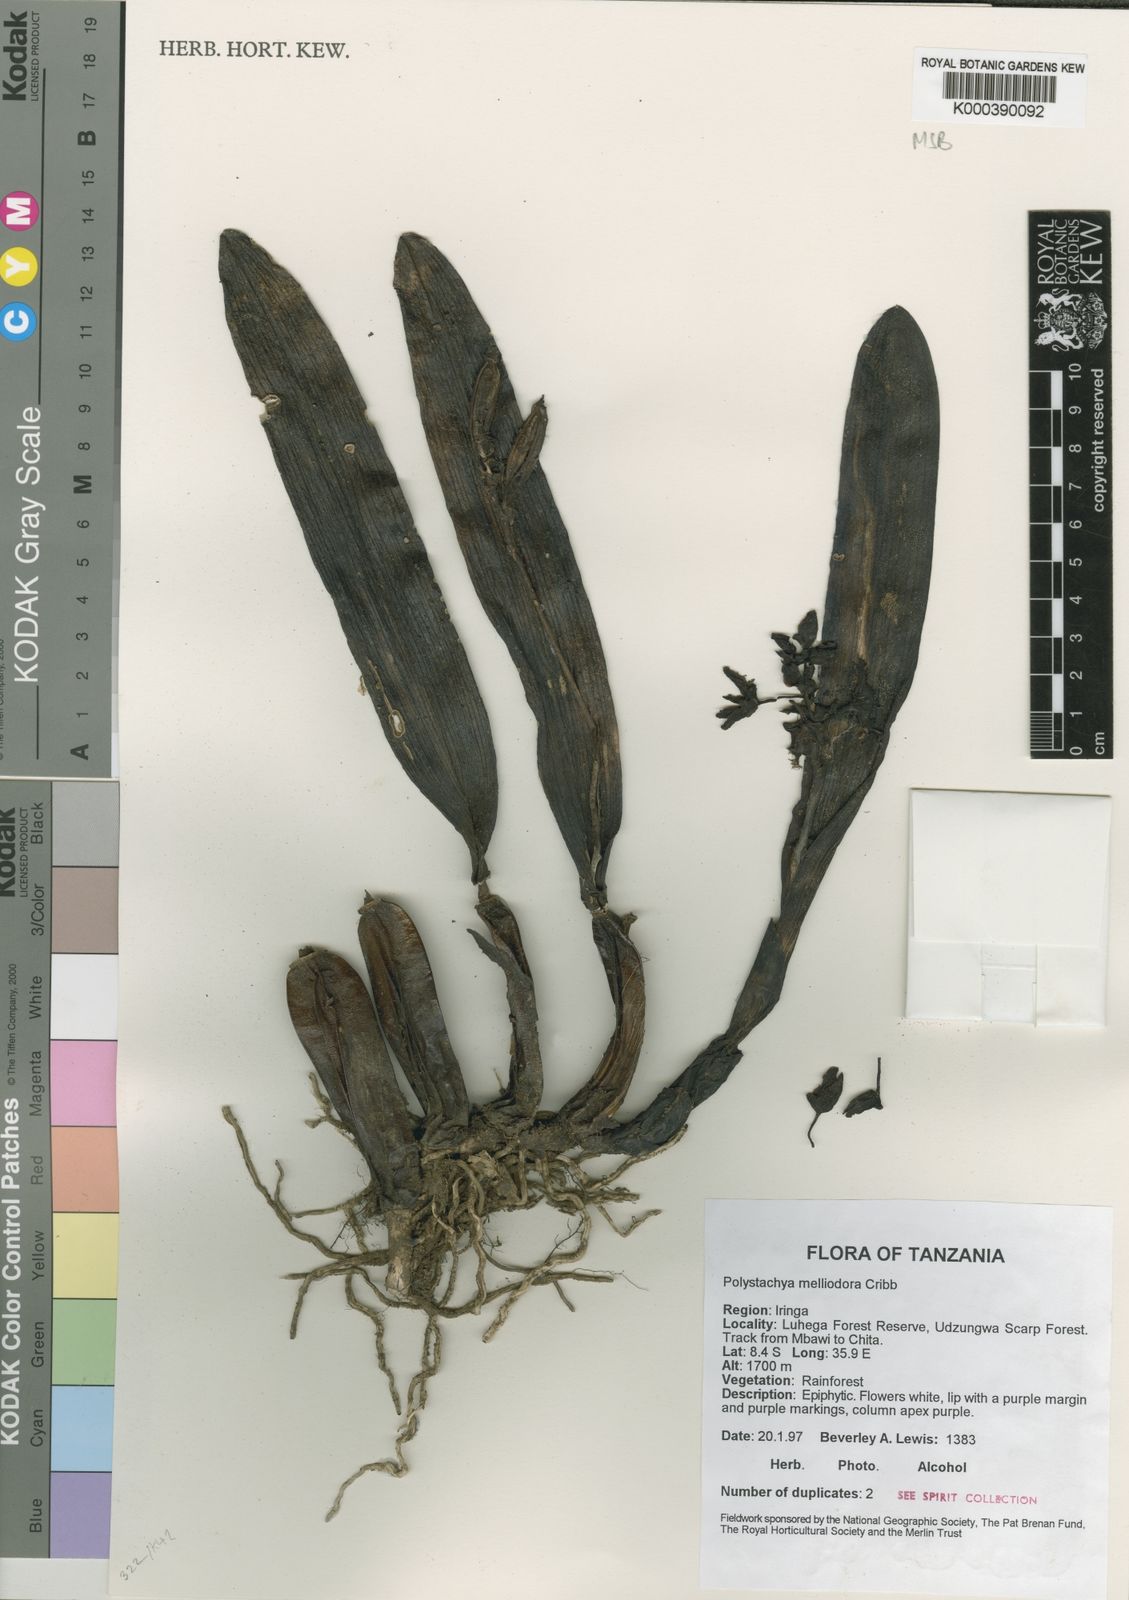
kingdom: Plantae
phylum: Tracheophyta
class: Liliopsida
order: Asparagales
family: Orchidaceae
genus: Polystachya
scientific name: Polystachya melliodora
